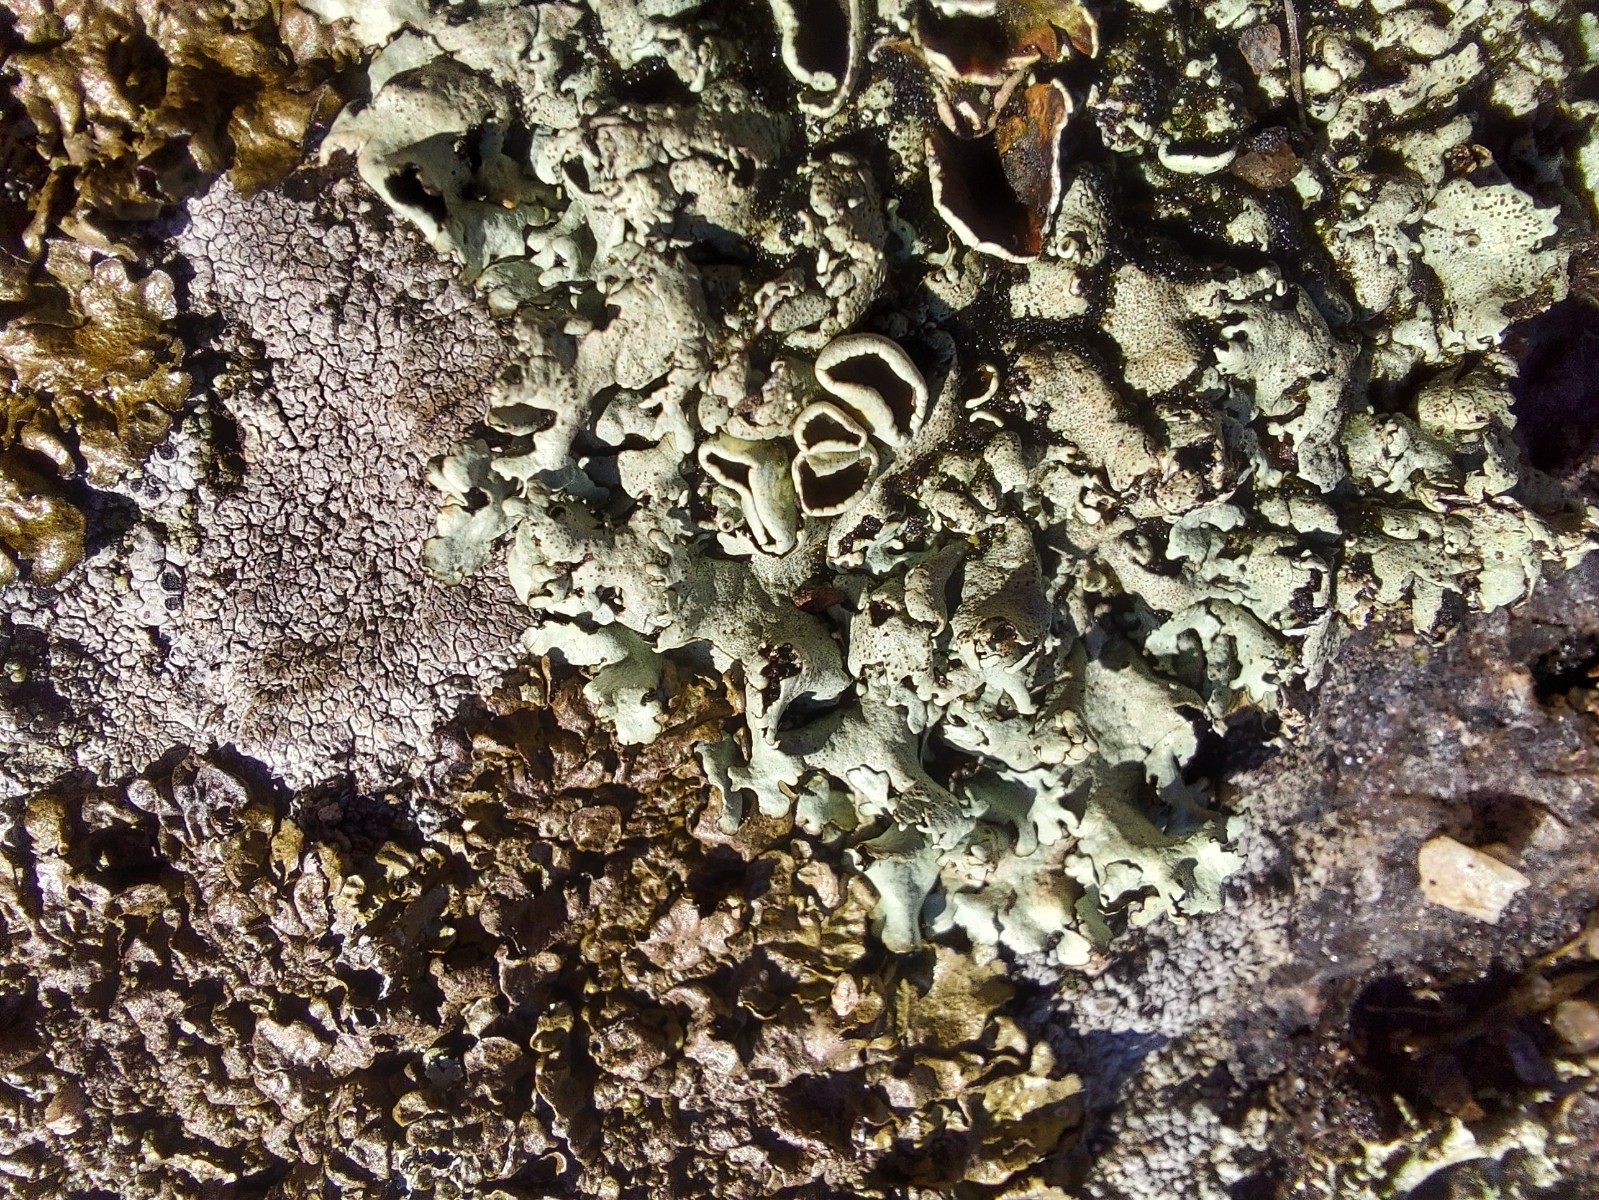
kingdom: Fungi
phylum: Ascomycota
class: Lecanoromycetes
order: Lecanorales
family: Parmeliaceae
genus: Xanthoparmelia
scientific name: Xanthoparmelia conspersa
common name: messing-skållav
